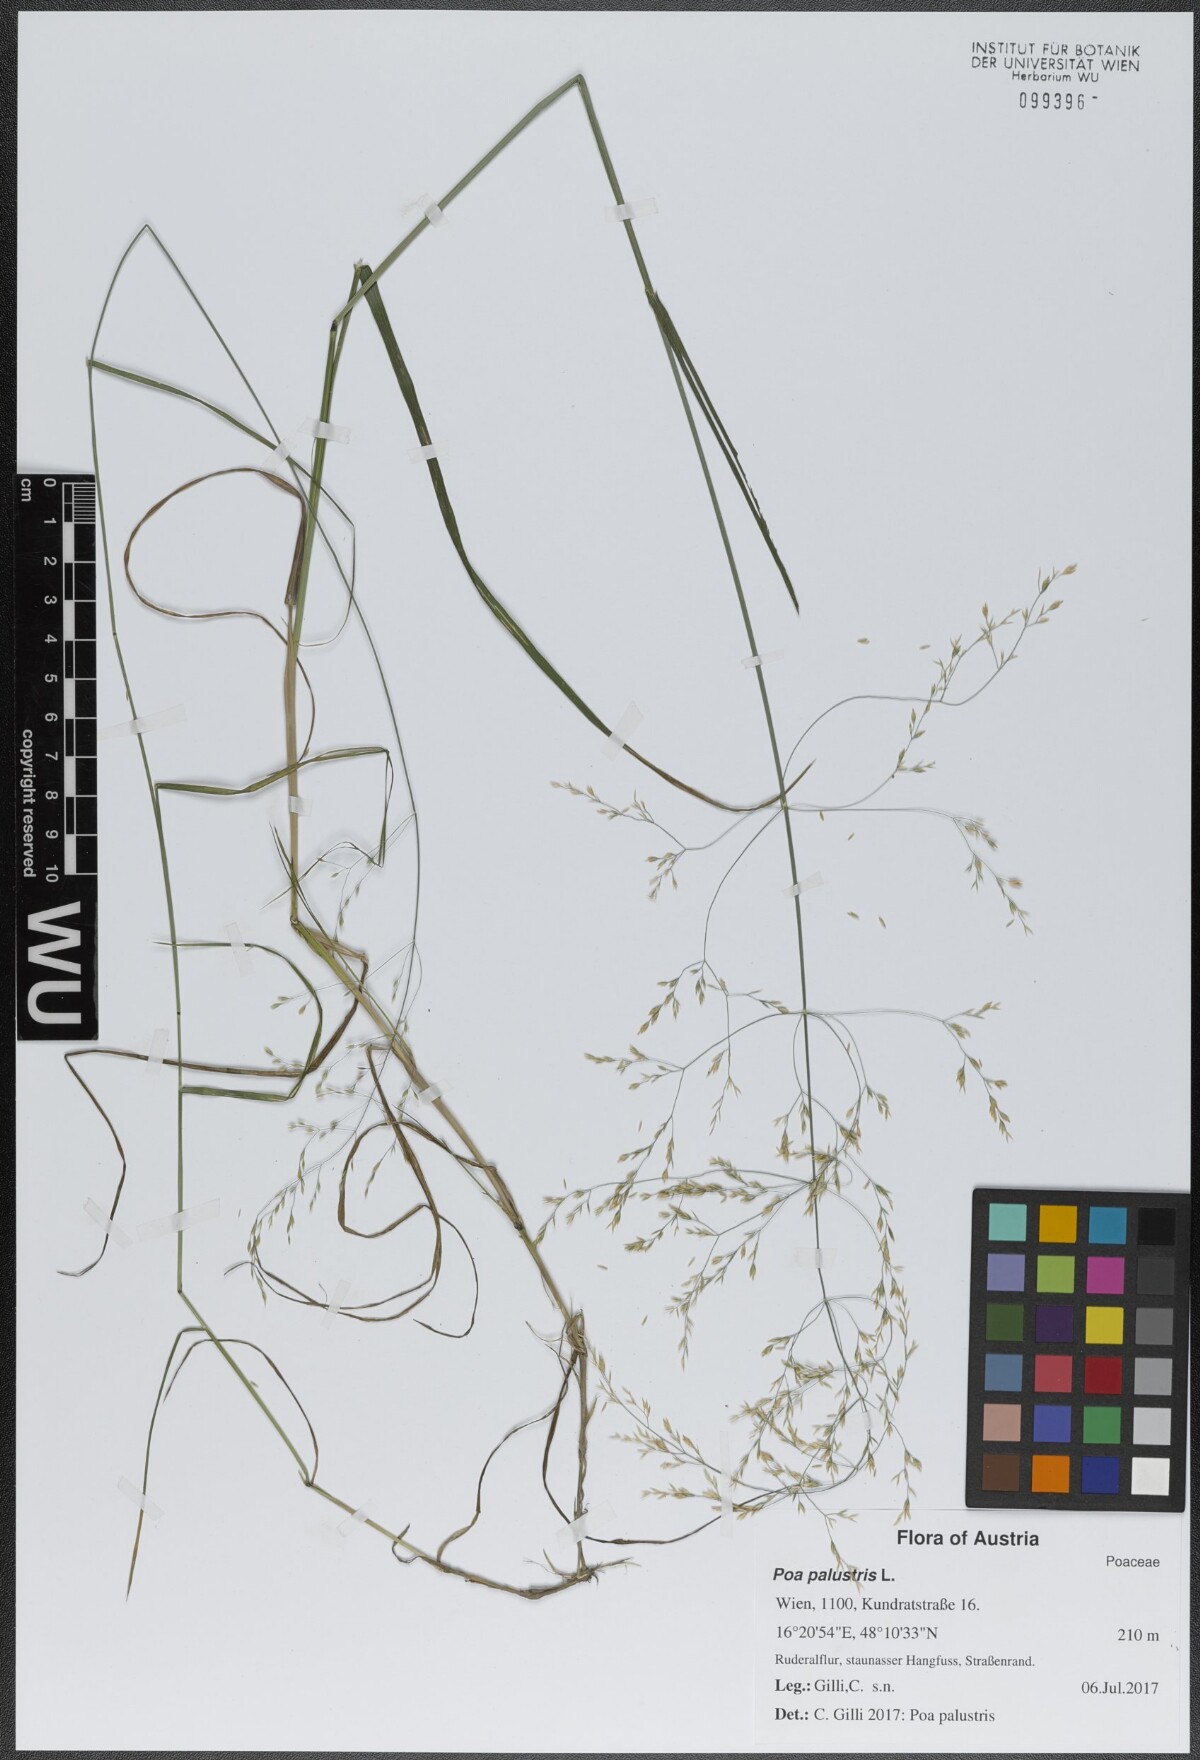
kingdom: Plantae
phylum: Tracheophyta
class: Liliopsida
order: Poales
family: Poaceae
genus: Poa
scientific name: Poa palustris
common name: Swamp meadow-grass
